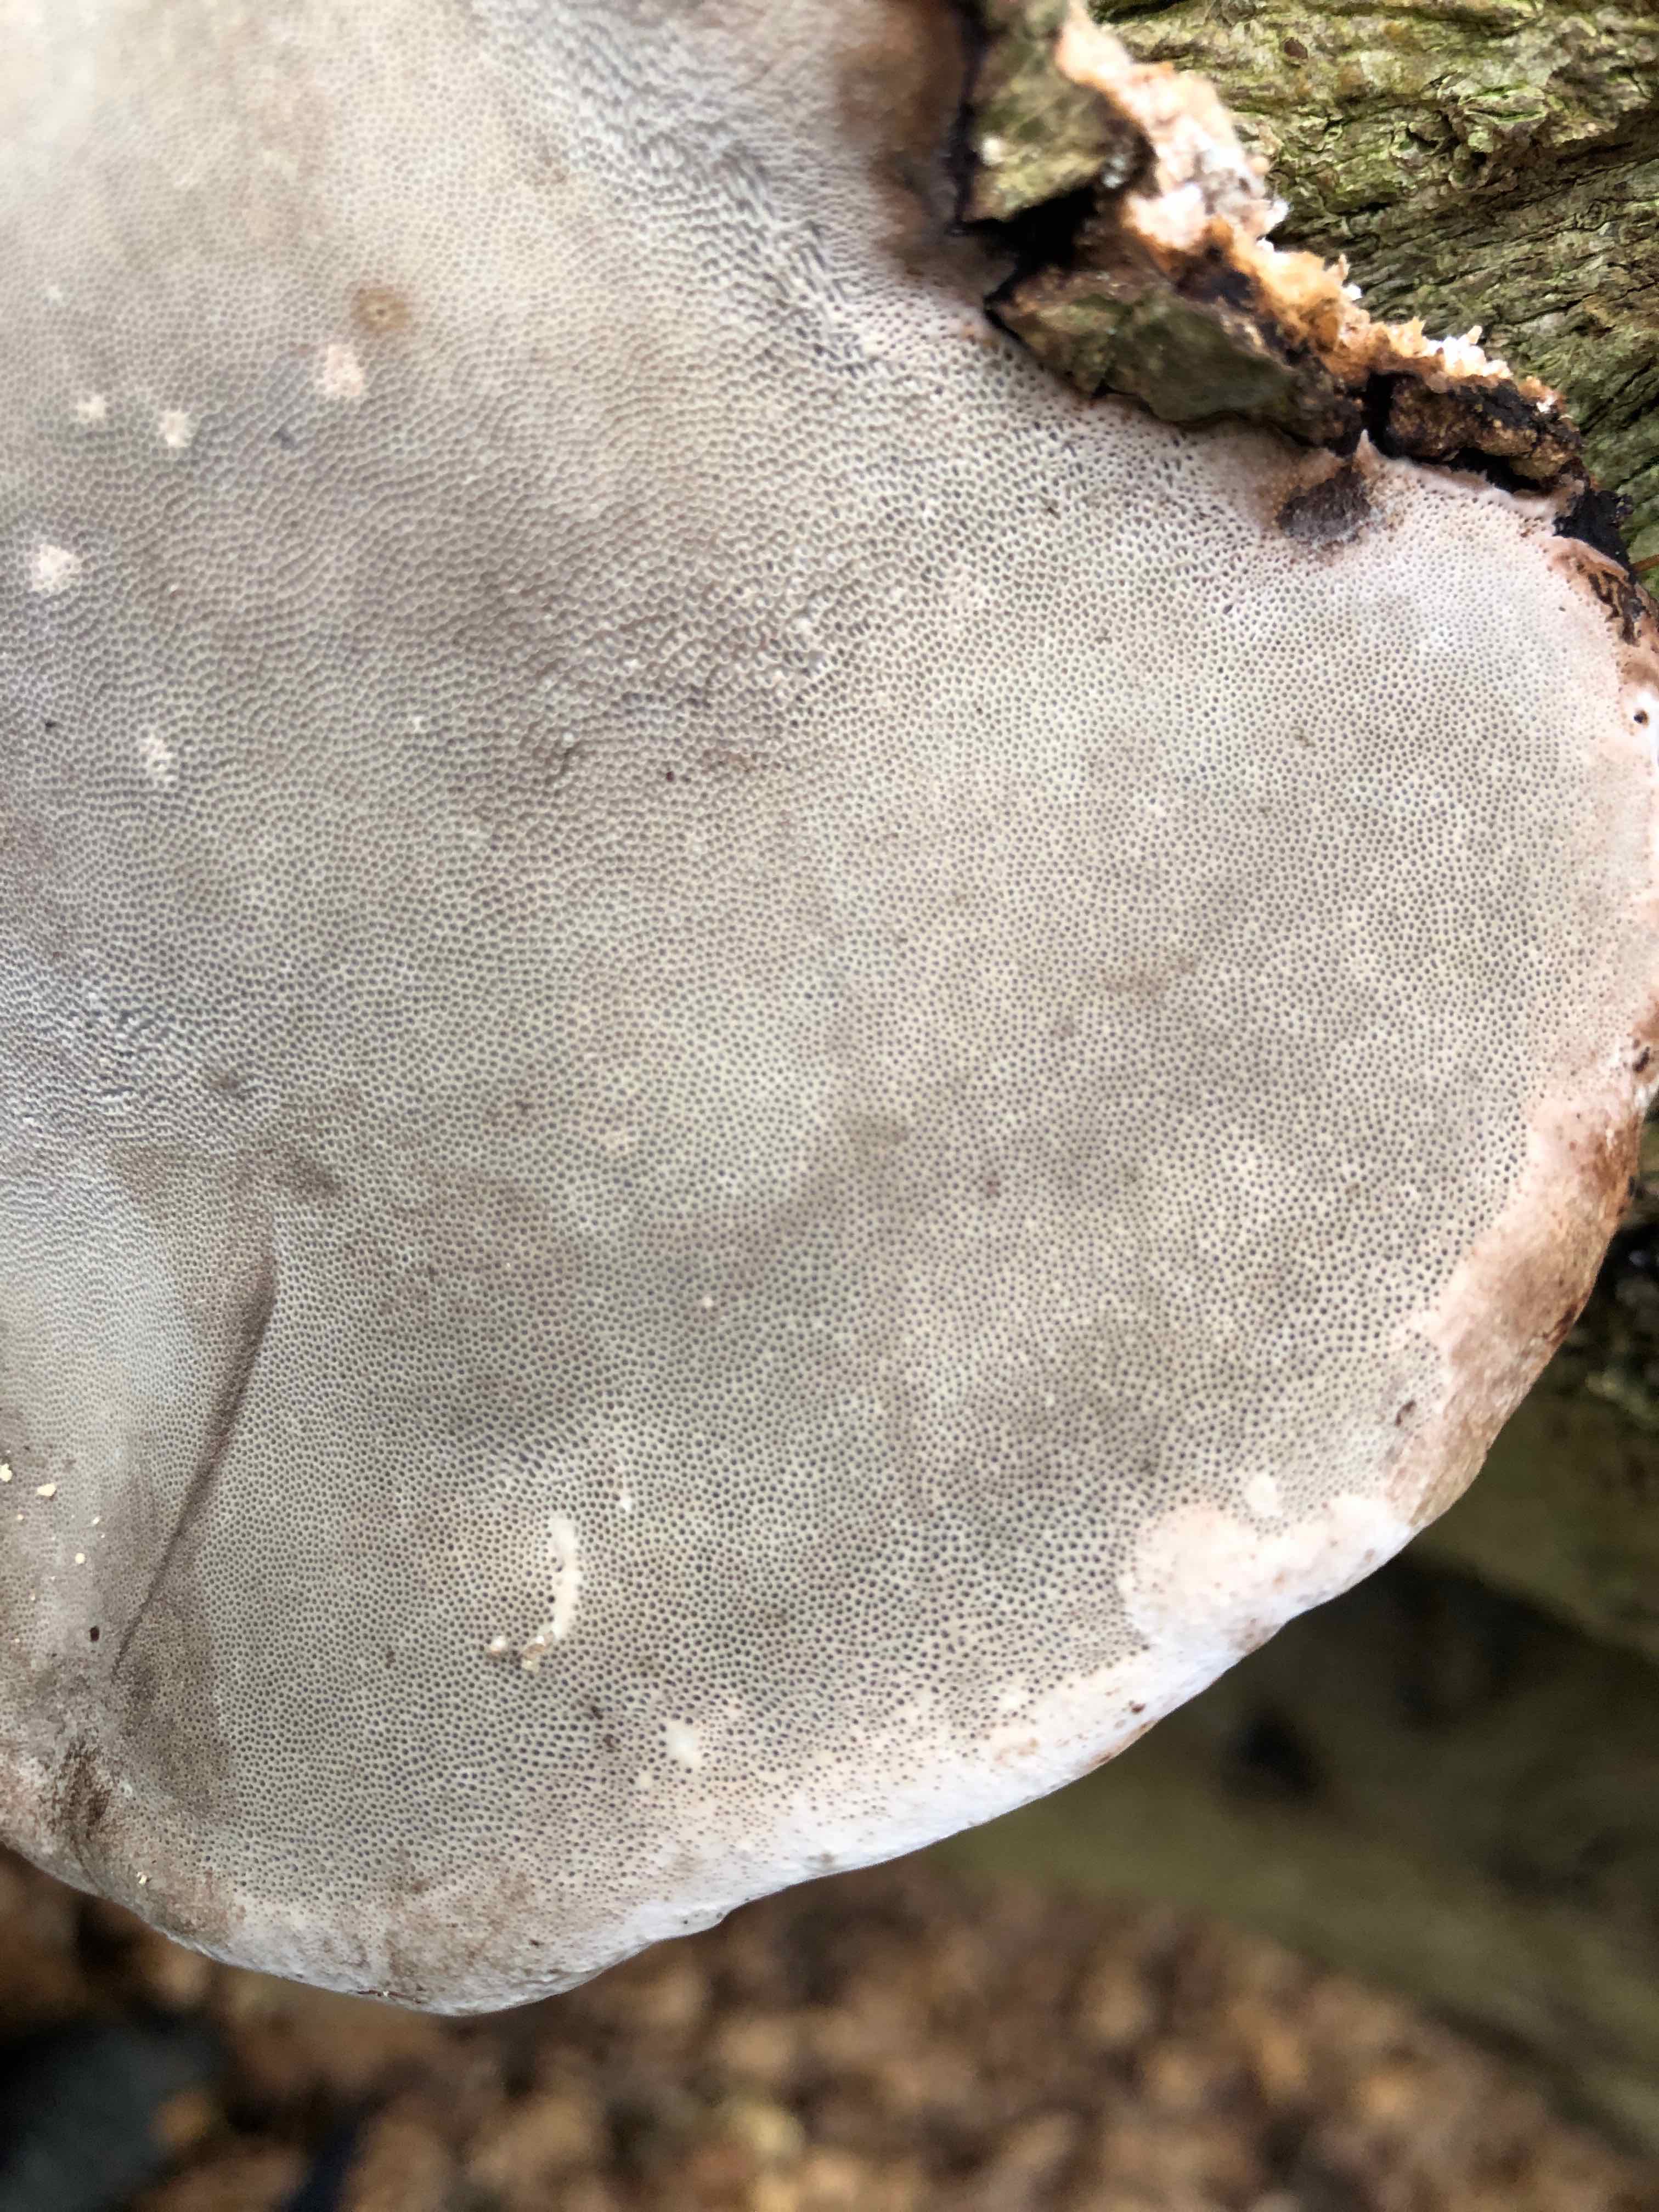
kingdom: Fungi
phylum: Basidiomycota
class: Agaricomycetes
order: Polyporales
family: Polyporaceae
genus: Fomes
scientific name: Fomes fomentarius
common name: tøndersvamp
